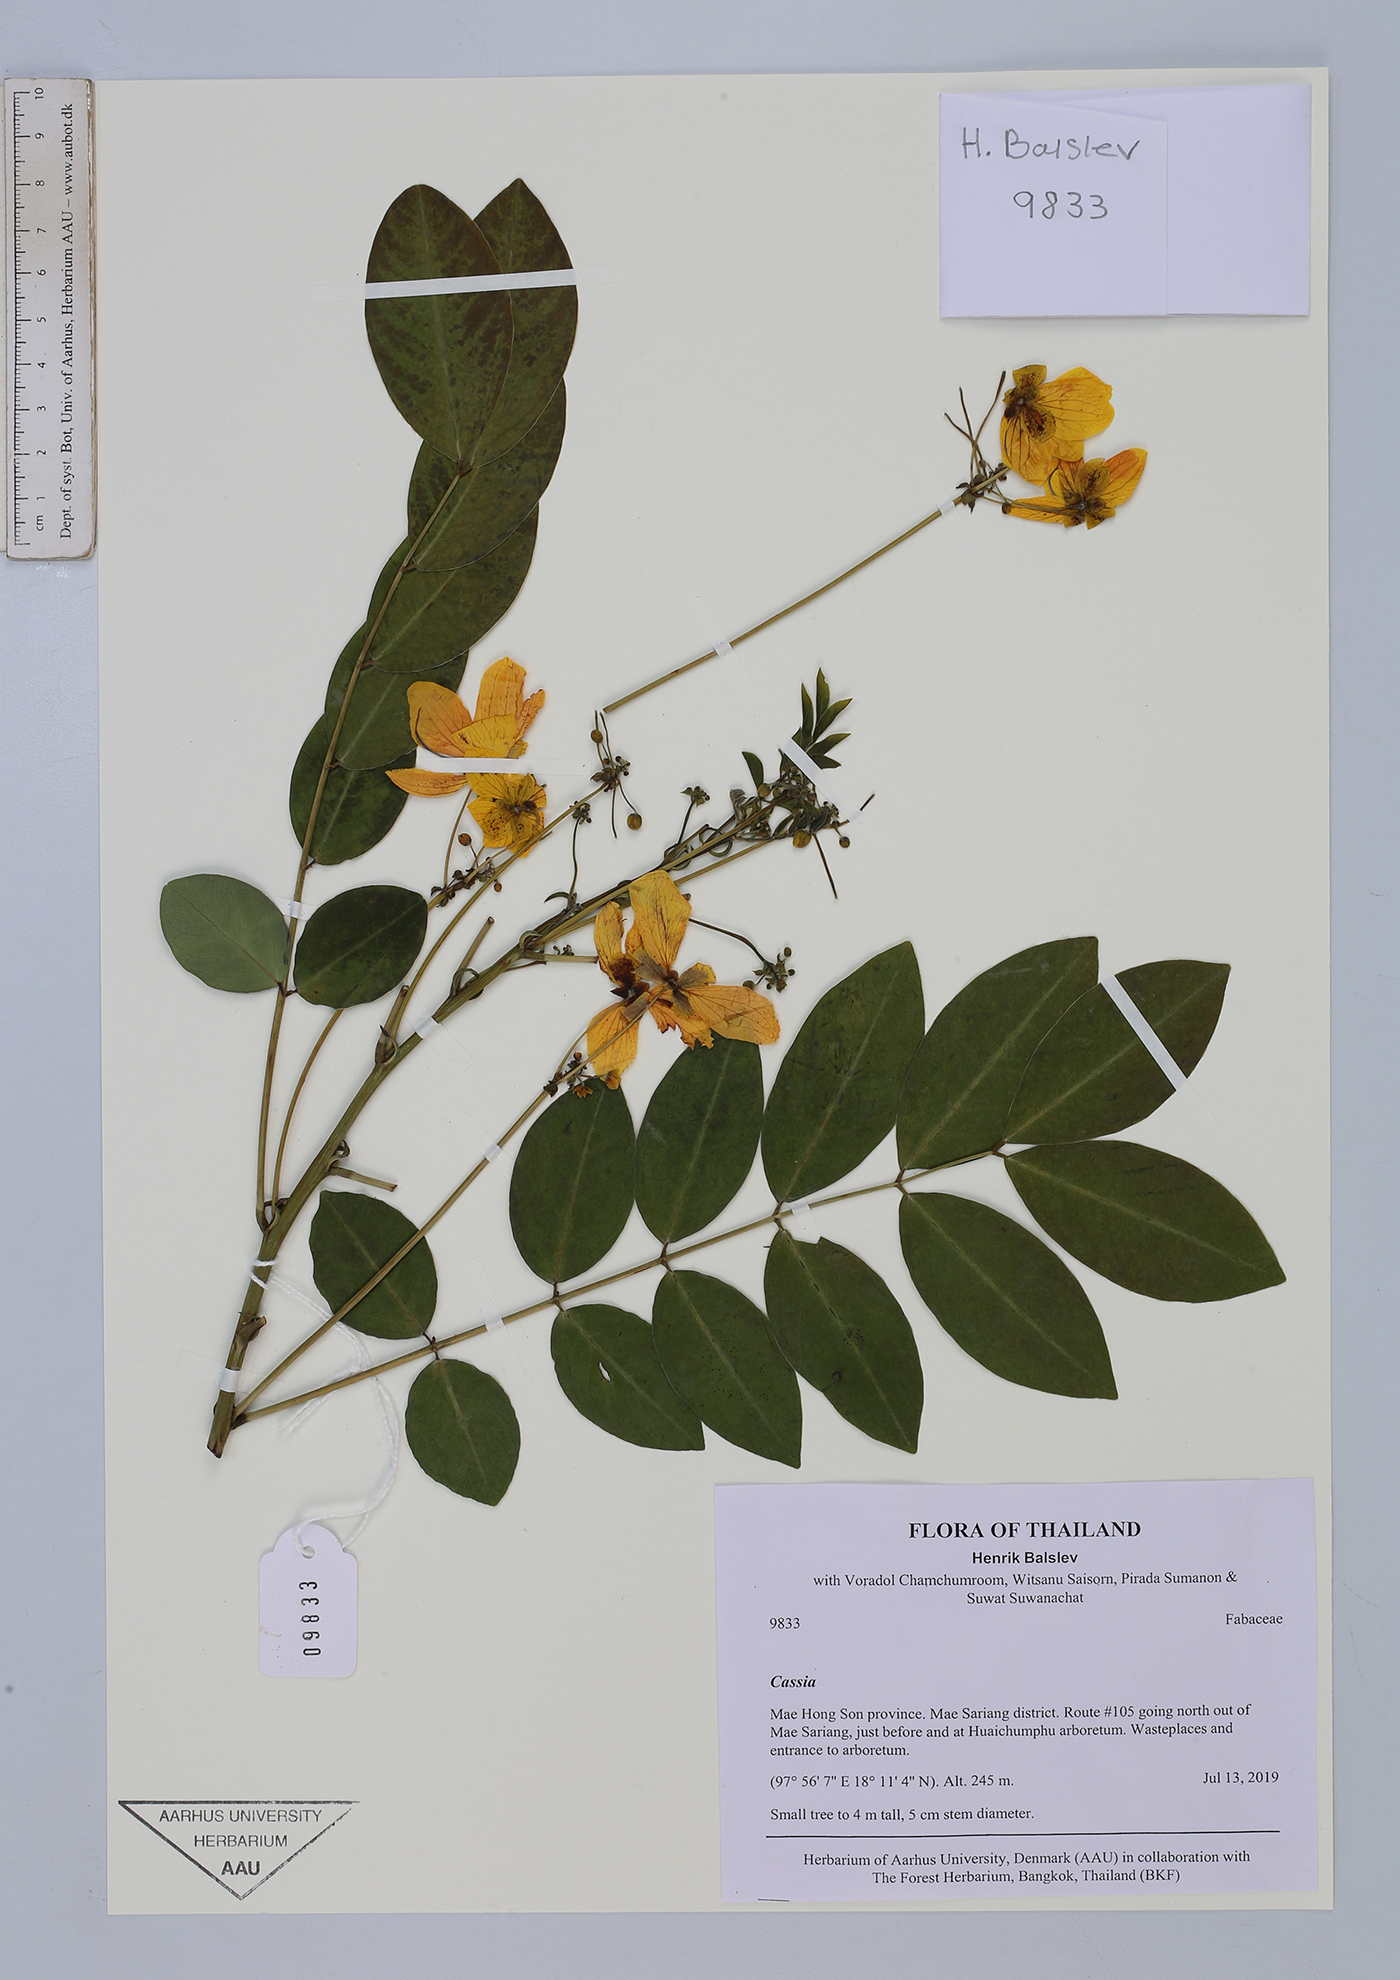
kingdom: Plantae
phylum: Tracheophyta
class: Magnoliopsida
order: Fabales
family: Fabaceae
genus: Cassia
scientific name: Cassia
